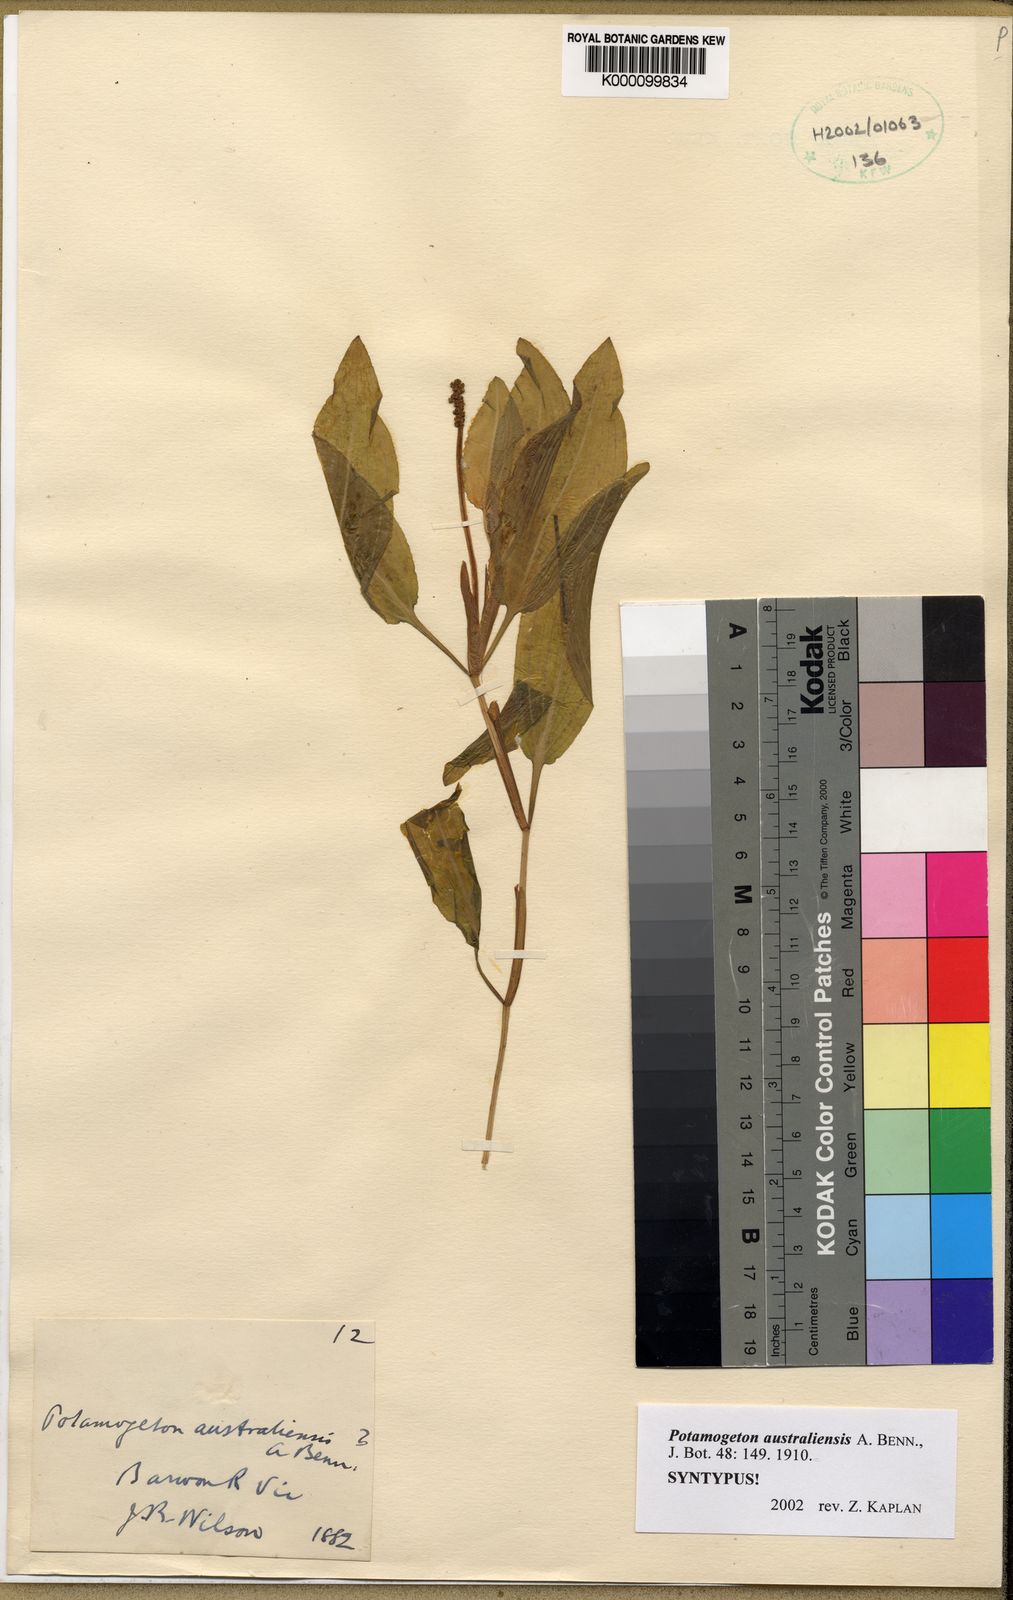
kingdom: Plantae
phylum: Tracheophyta
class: Liliopsida
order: Alismatales
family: Potamogetonaceae
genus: Potamogeton
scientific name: Potamogeton australiensis
